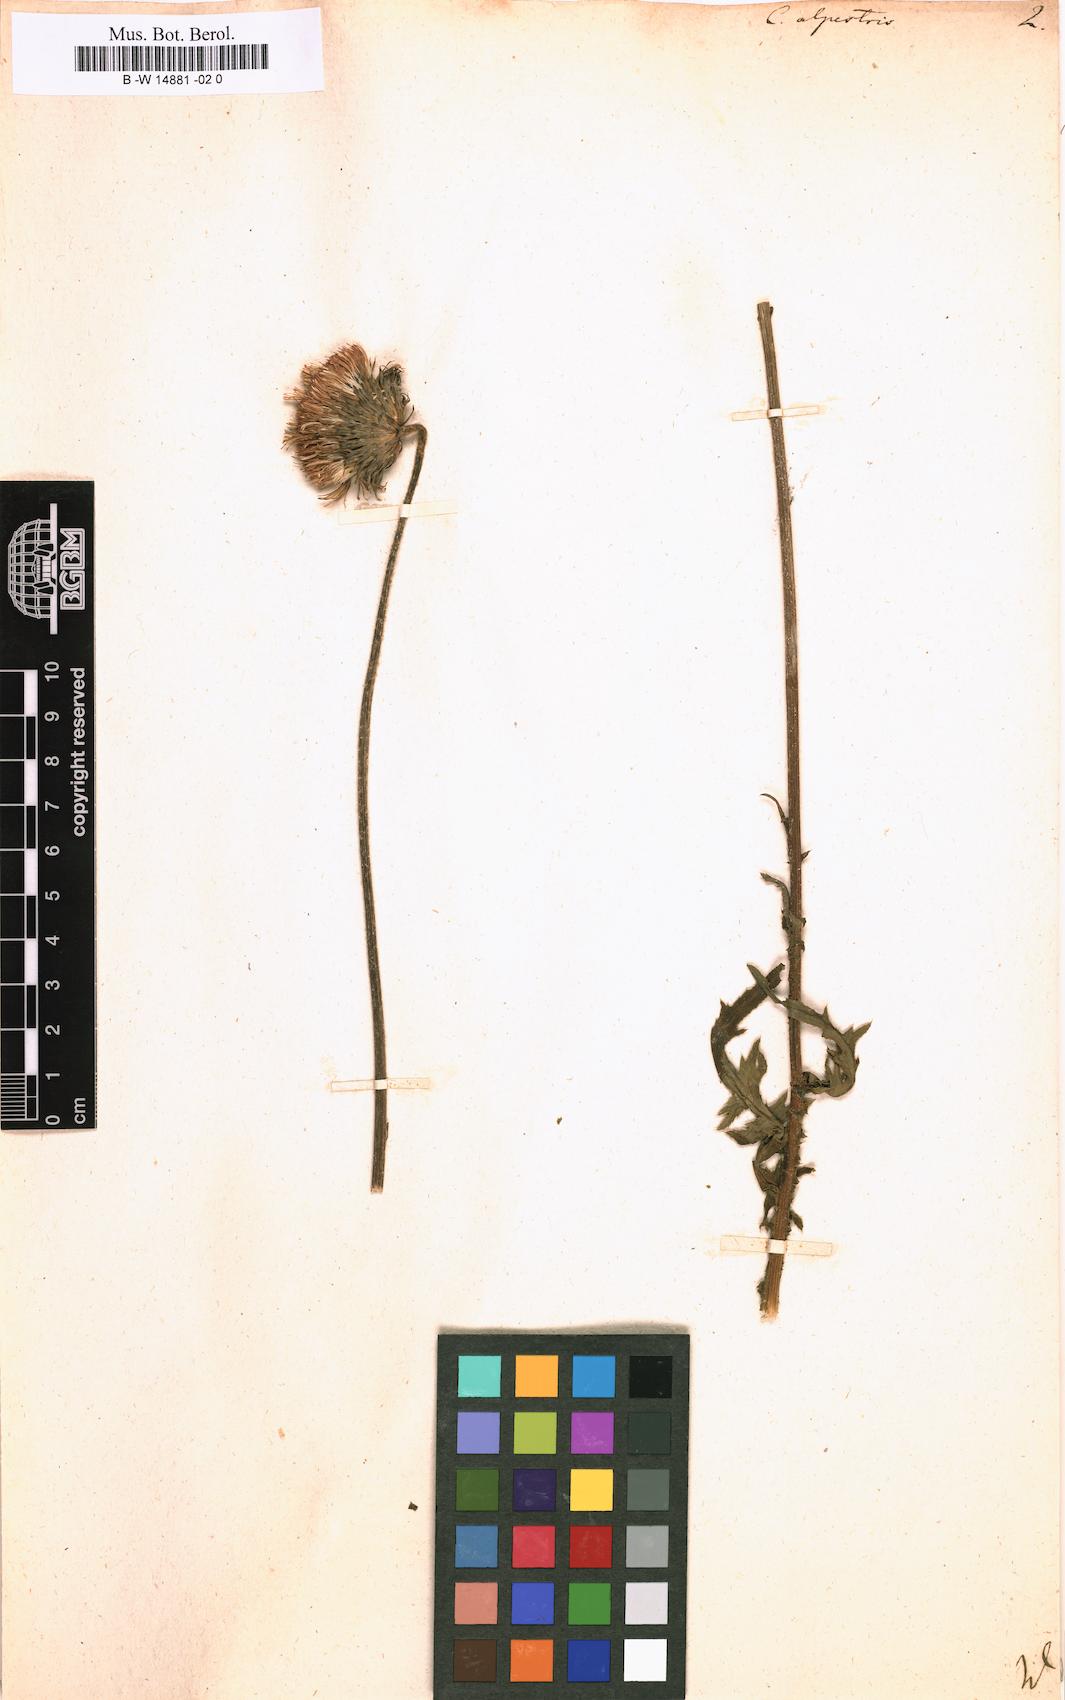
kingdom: Plantae
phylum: Tracheophyta
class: Magnoliopsida
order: Asterales
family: Asteraceae
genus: Carduus
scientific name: Carduus carduelis
